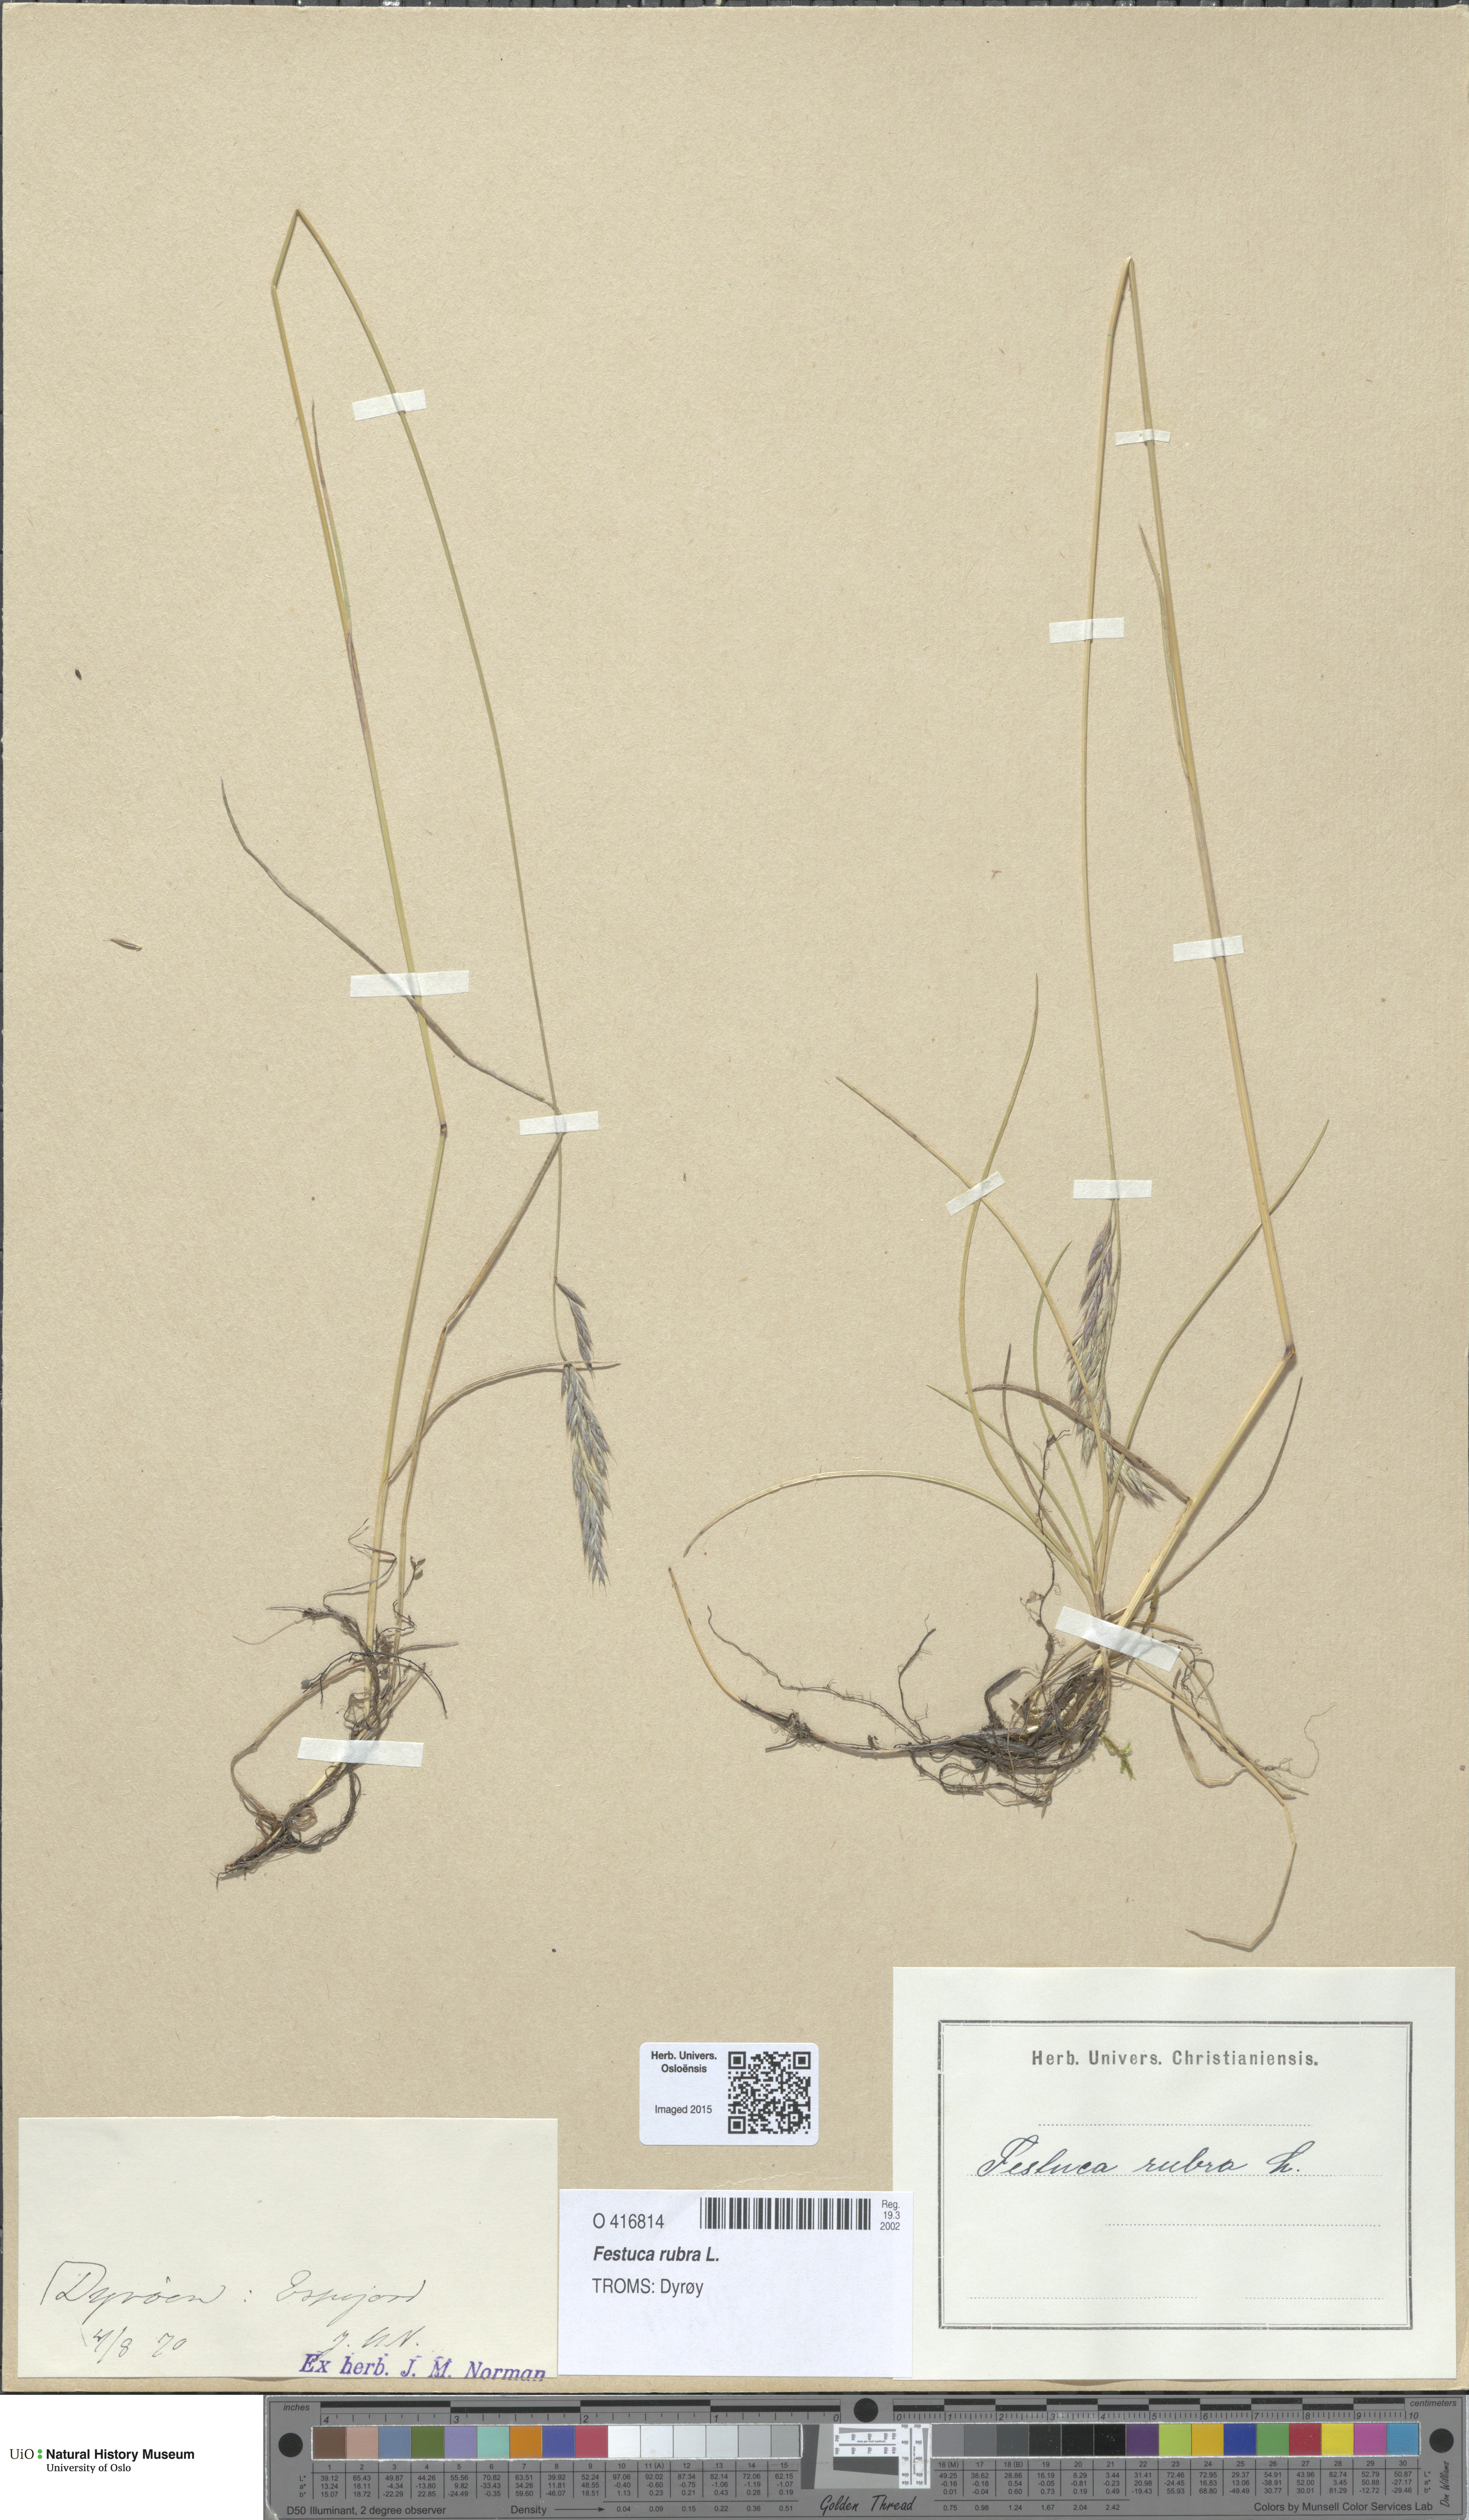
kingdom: Plantae
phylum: Tracheophyta
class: Liliopsida
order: Poales
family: Poaceae
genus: Festuca
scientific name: Festuca rubra
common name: Red fescue
